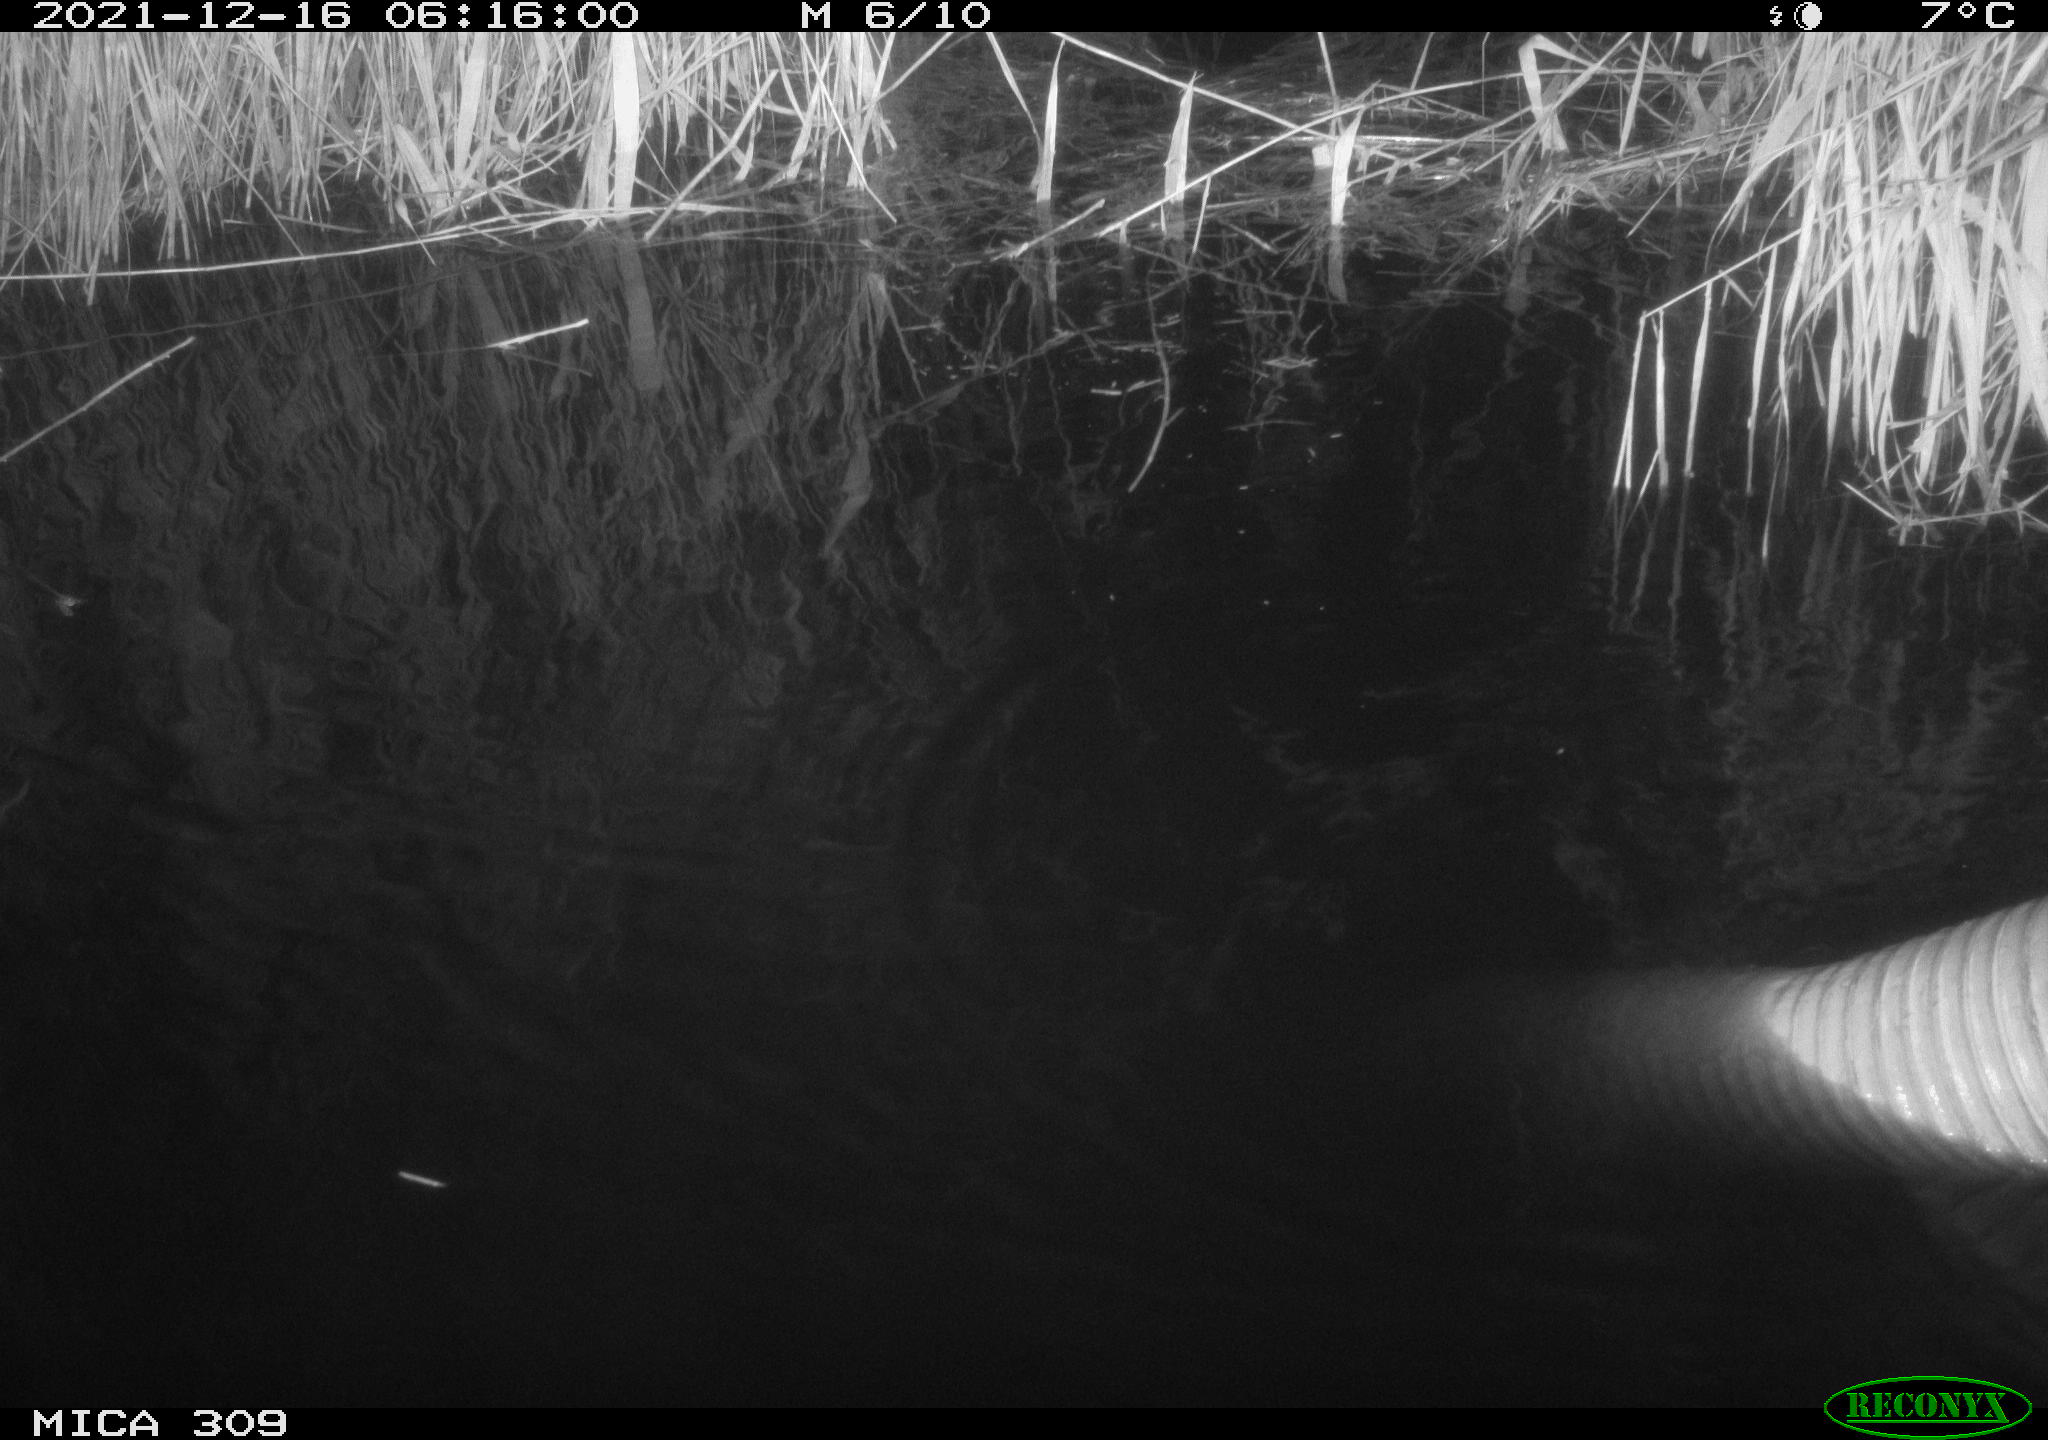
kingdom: Animalia
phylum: Chordata
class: Mammalia
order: Rodentia
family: Muridae
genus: Rattus
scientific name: Rattus norvegicus
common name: Brown rat
